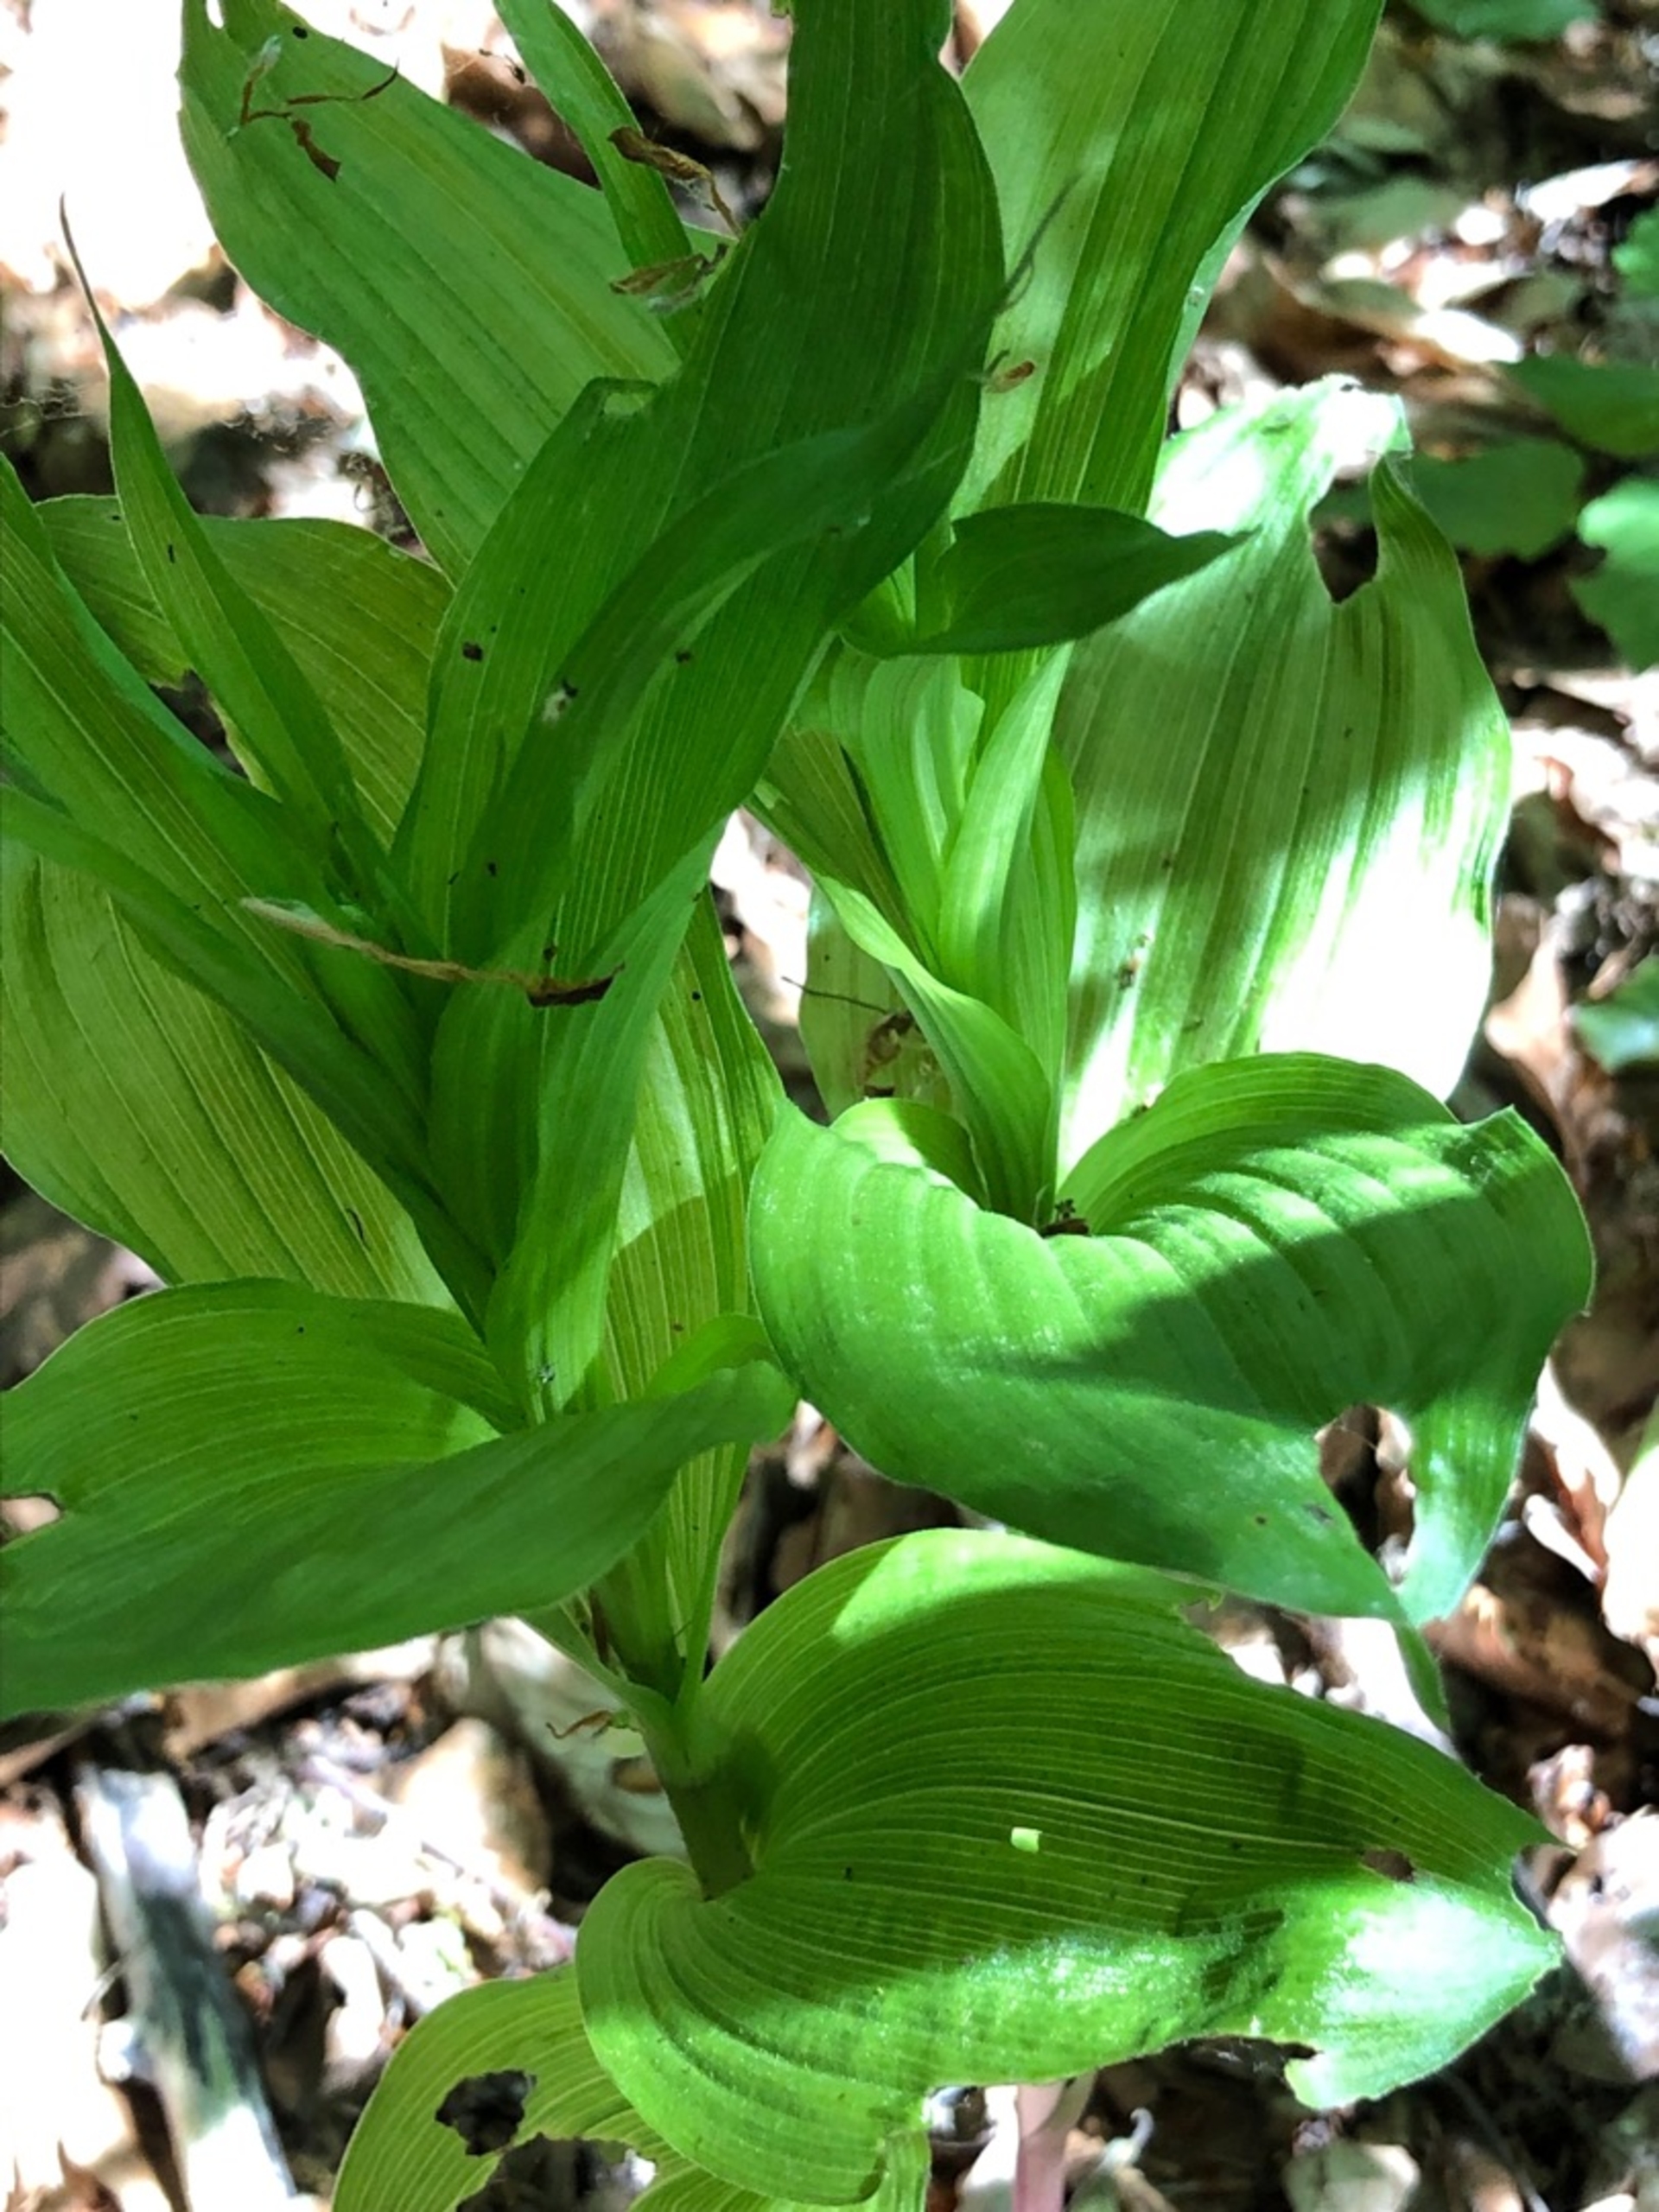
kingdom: Plantae
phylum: Tracheophyta
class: Liliopsida
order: Asparagales
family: Orchidaceae
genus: Epipactis
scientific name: Epipactis helleborine
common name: Skov-hullæbe
